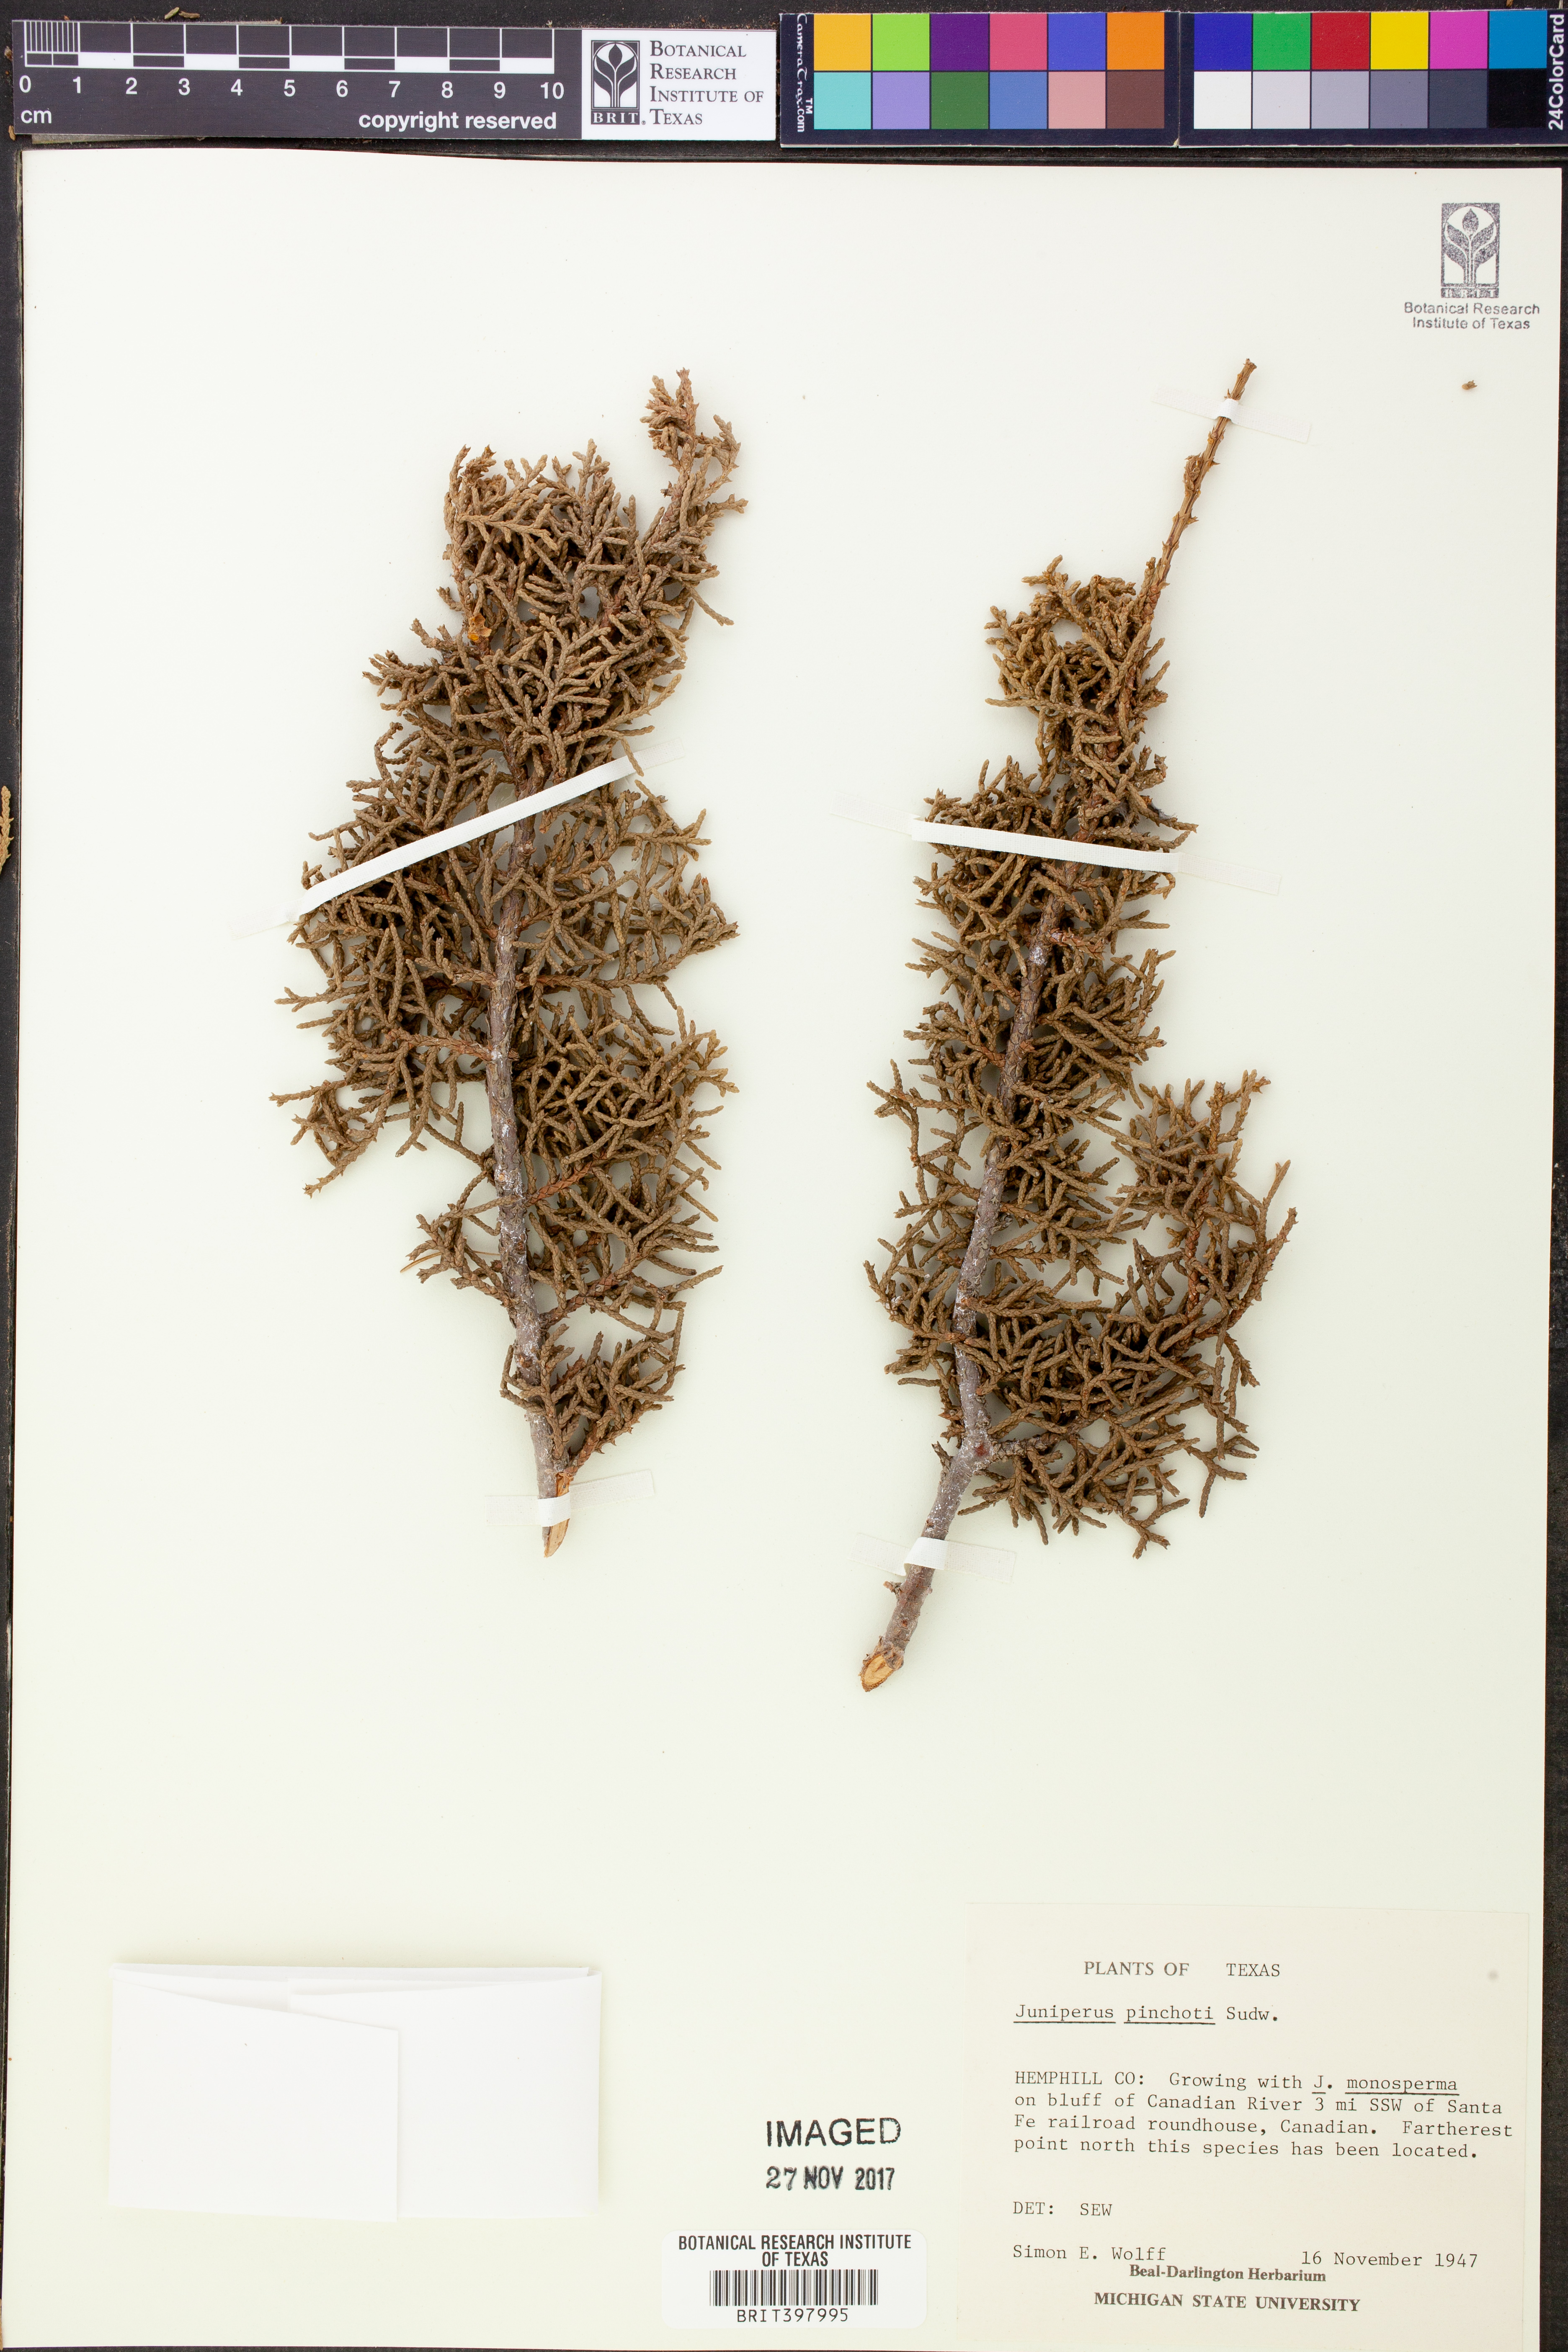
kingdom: Plantae
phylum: Tracheophyta
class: Pinopsida
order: Pinales
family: Cupressaceae
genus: Juniperus
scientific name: Juniperus pinchotii
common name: Pinchot juniper
